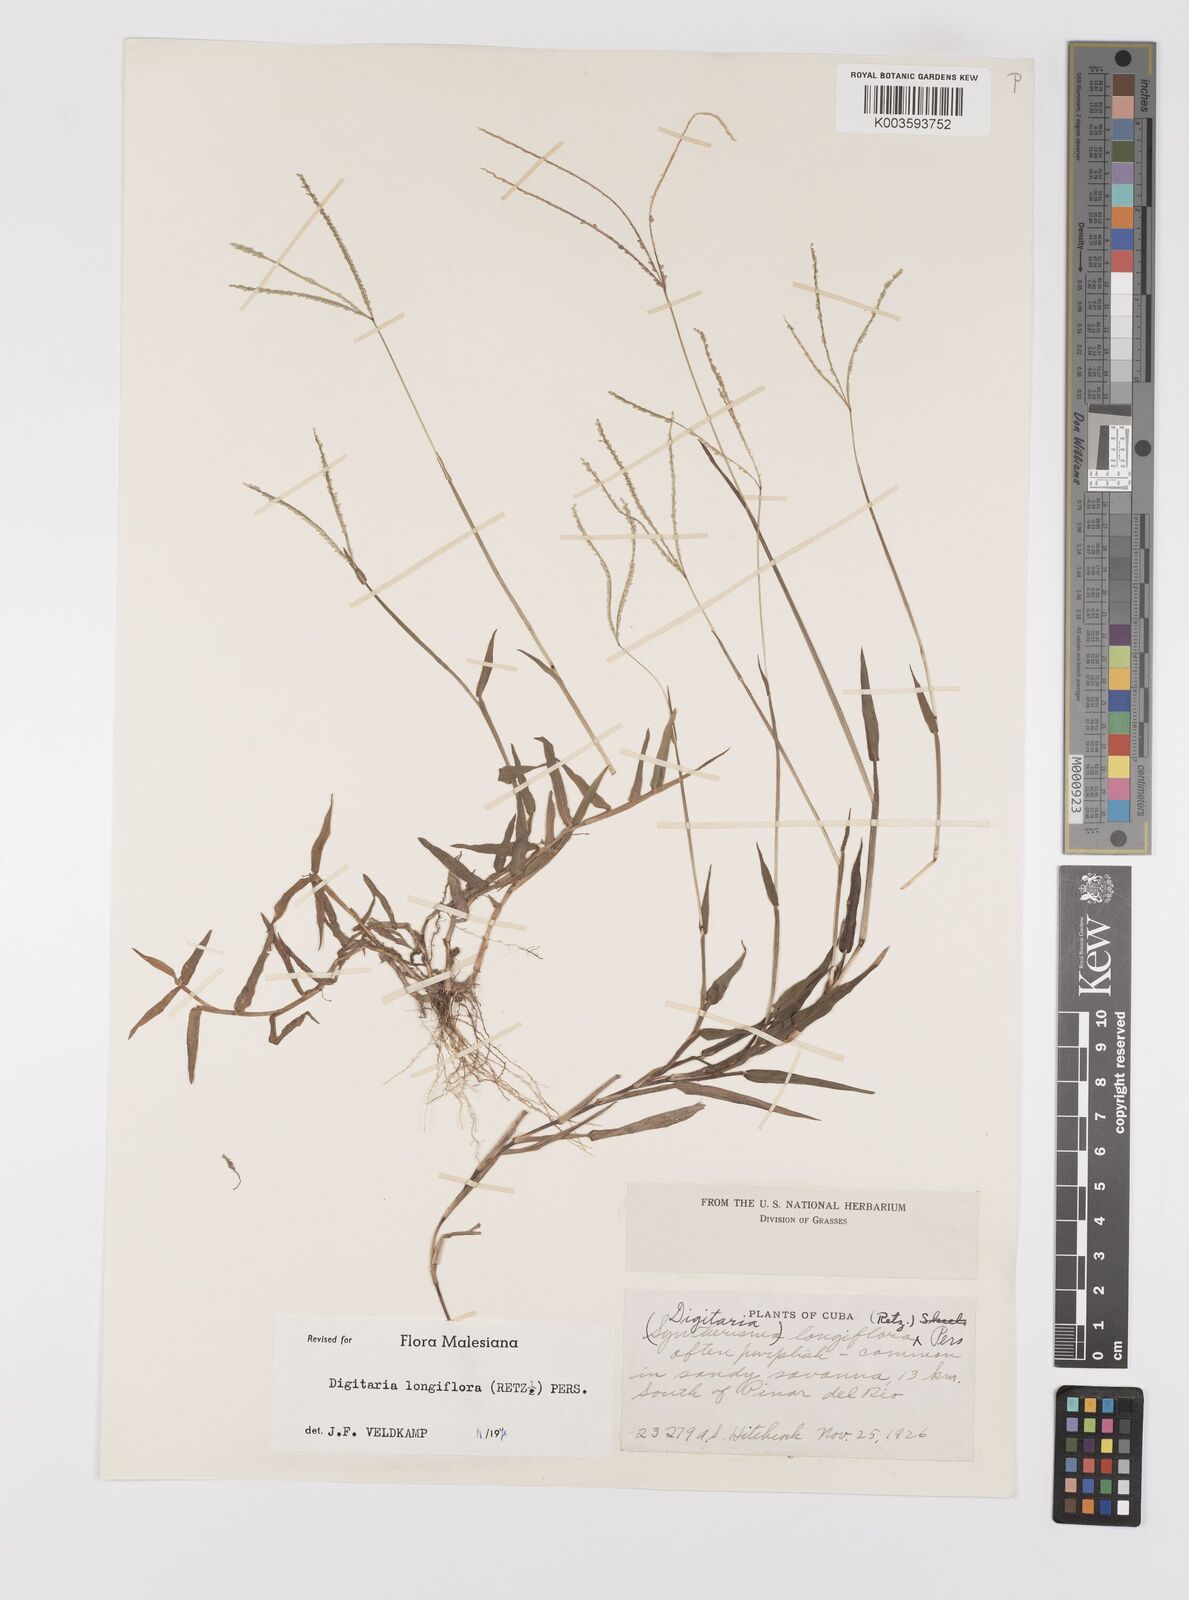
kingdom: Plantae
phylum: Tracheophyta
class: Liliopsida
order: Poales
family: Poaceae
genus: Digitaria
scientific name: Digitaria longiflora
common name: Wire crabgrass
